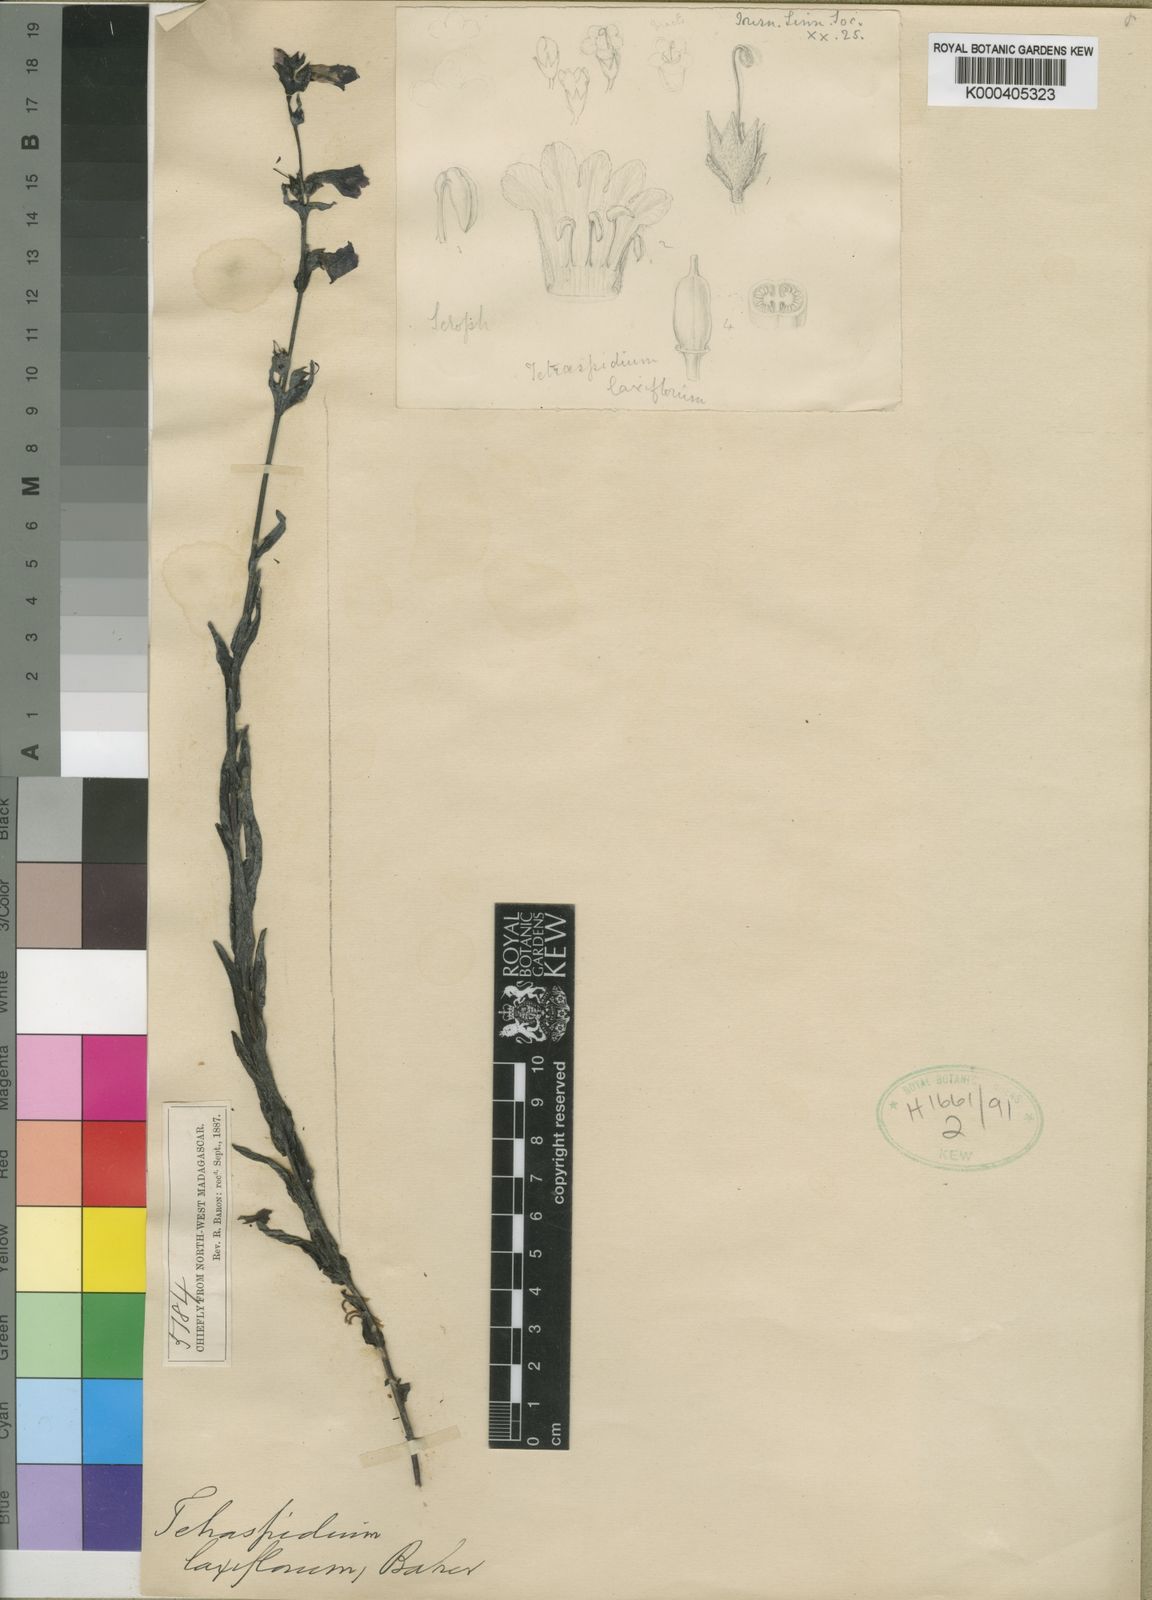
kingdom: Plantae
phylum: Tracheophyta
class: Magnoliopsida
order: Lamiales
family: Orobanchaceae
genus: Tetraspidium
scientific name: Tetraspidium laxiflorum
